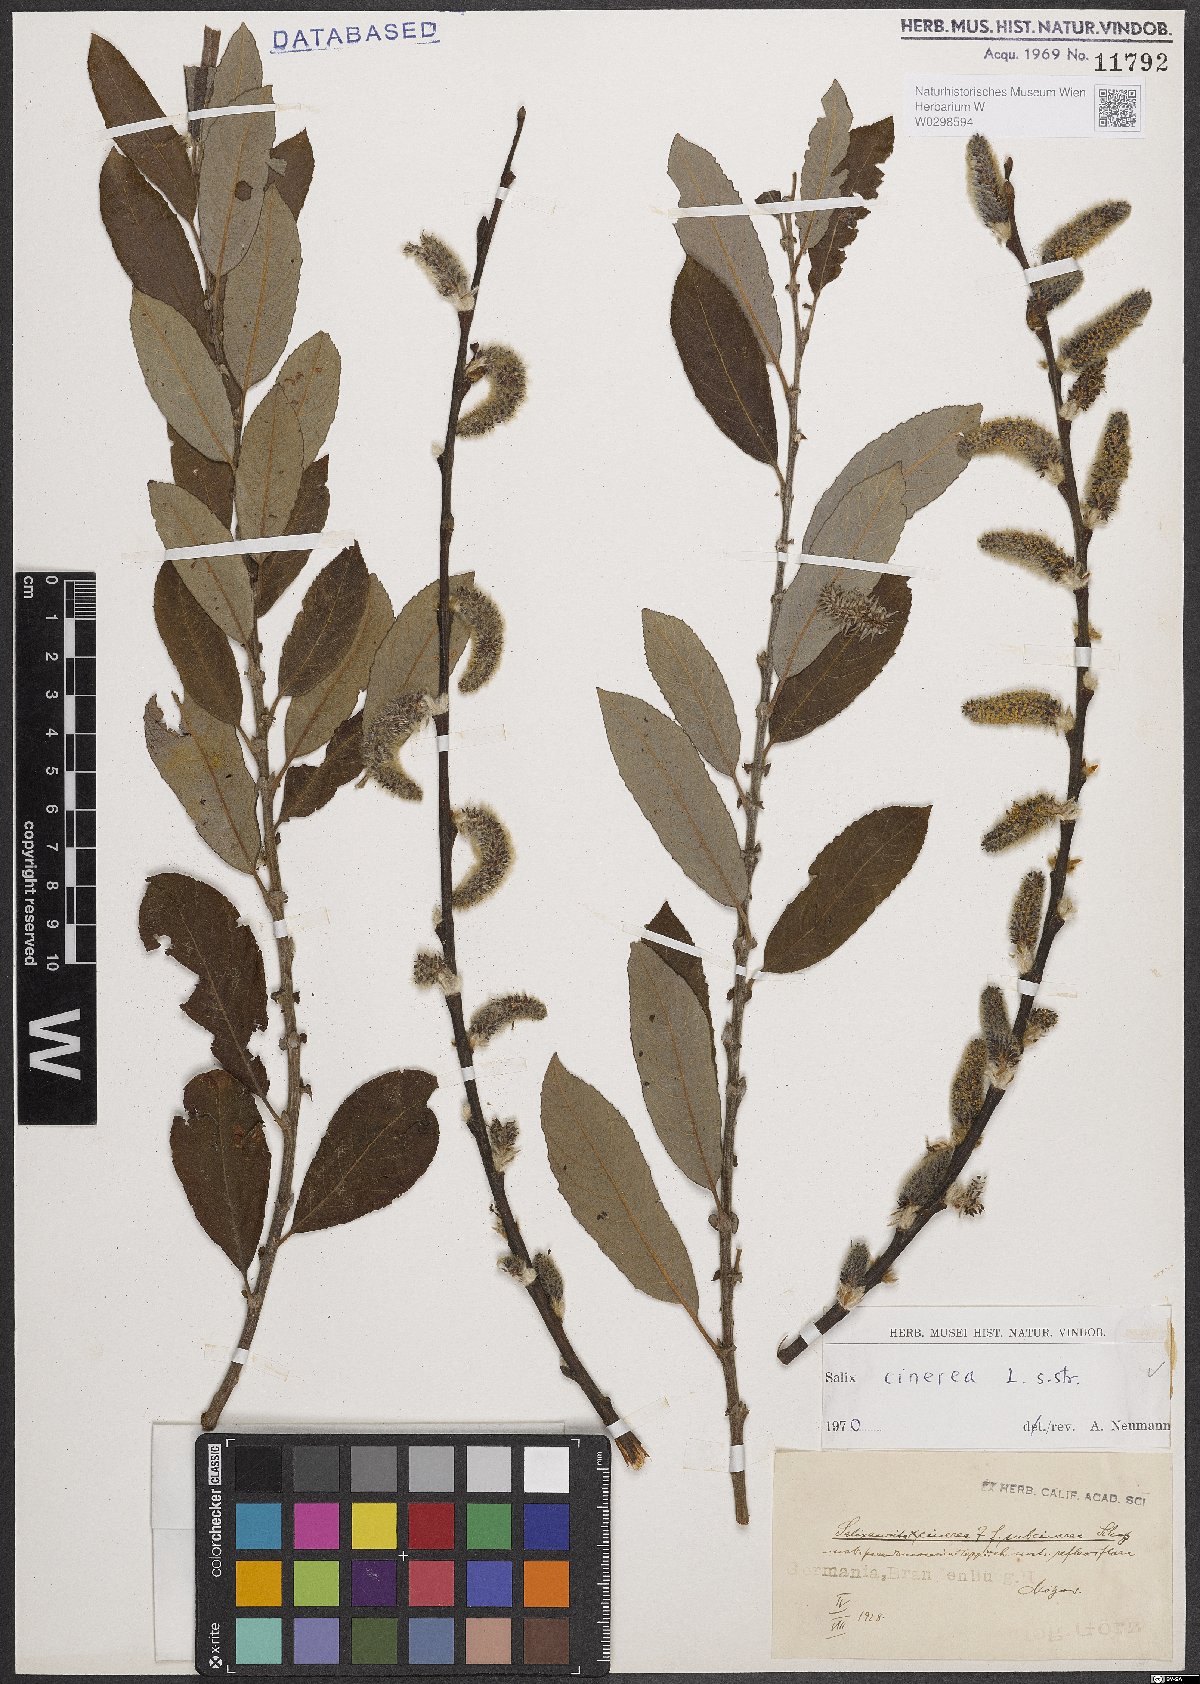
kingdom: Plantae
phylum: Tracheophyta
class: Magnoliopsida
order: Malpighiales
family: Salicaceae
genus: Salix
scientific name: Salix cinerea
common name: Common sallow
